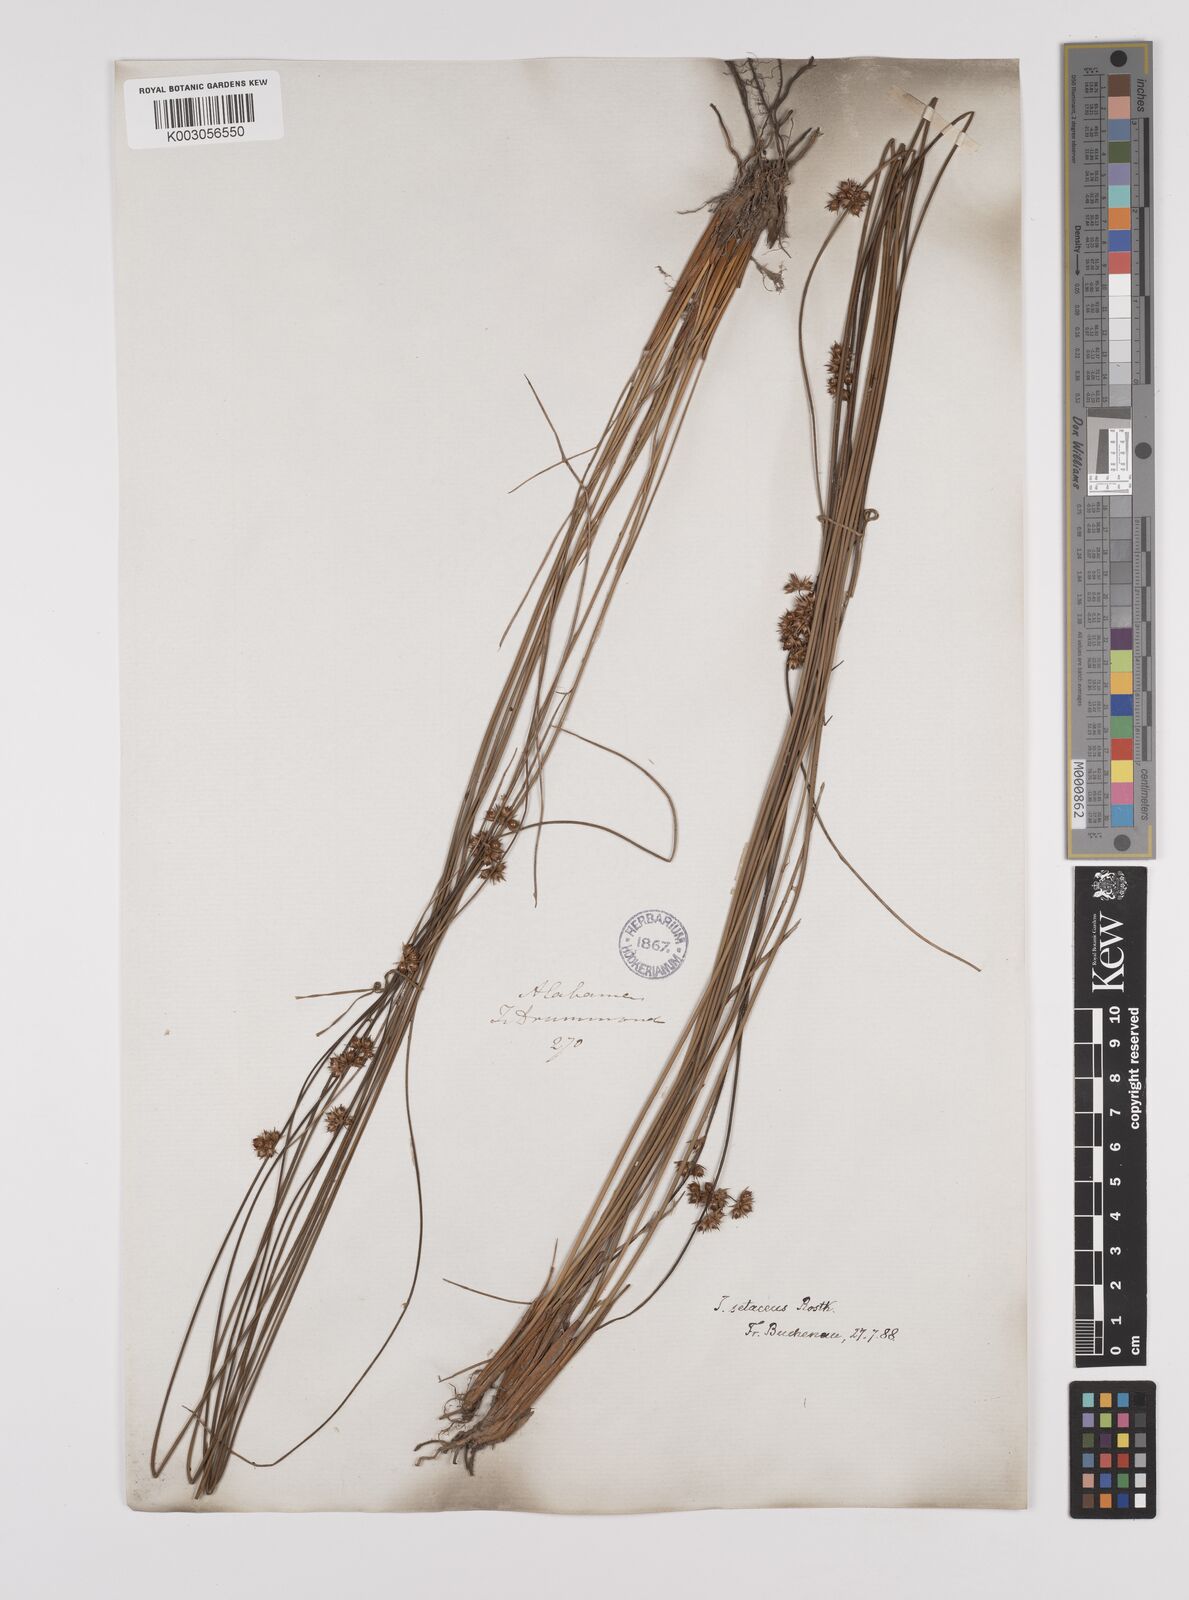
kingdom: Plantae
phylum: Tracheophyta
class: Liliopsida
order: Poales
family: Juncaceae
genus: Juncus
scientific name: Juncus balticus
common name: Baltic rush
